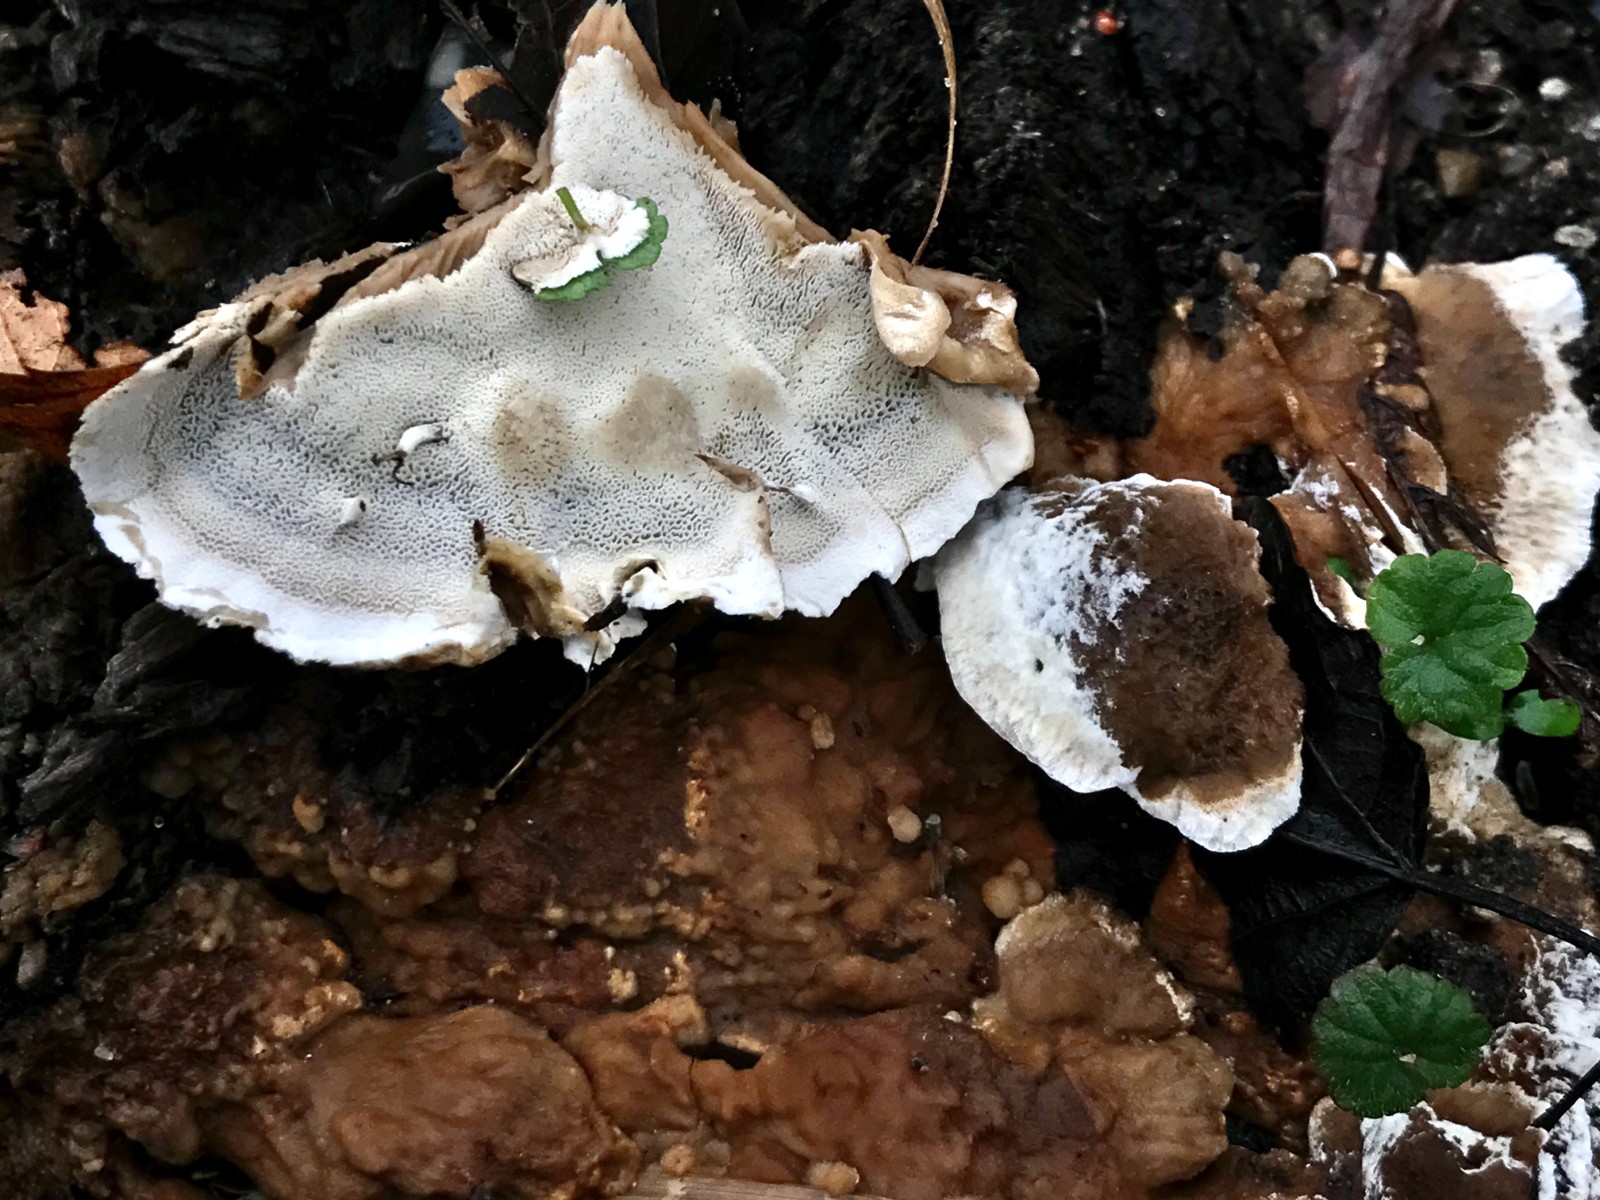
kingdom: Fungi
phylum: Basidiomycota
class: Agaricomycetes
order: Polyporales
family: Phanerochaetaceae
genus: Bjerkandera
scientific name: Bjerkandera fumosa
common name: grågul sodporesvamp
